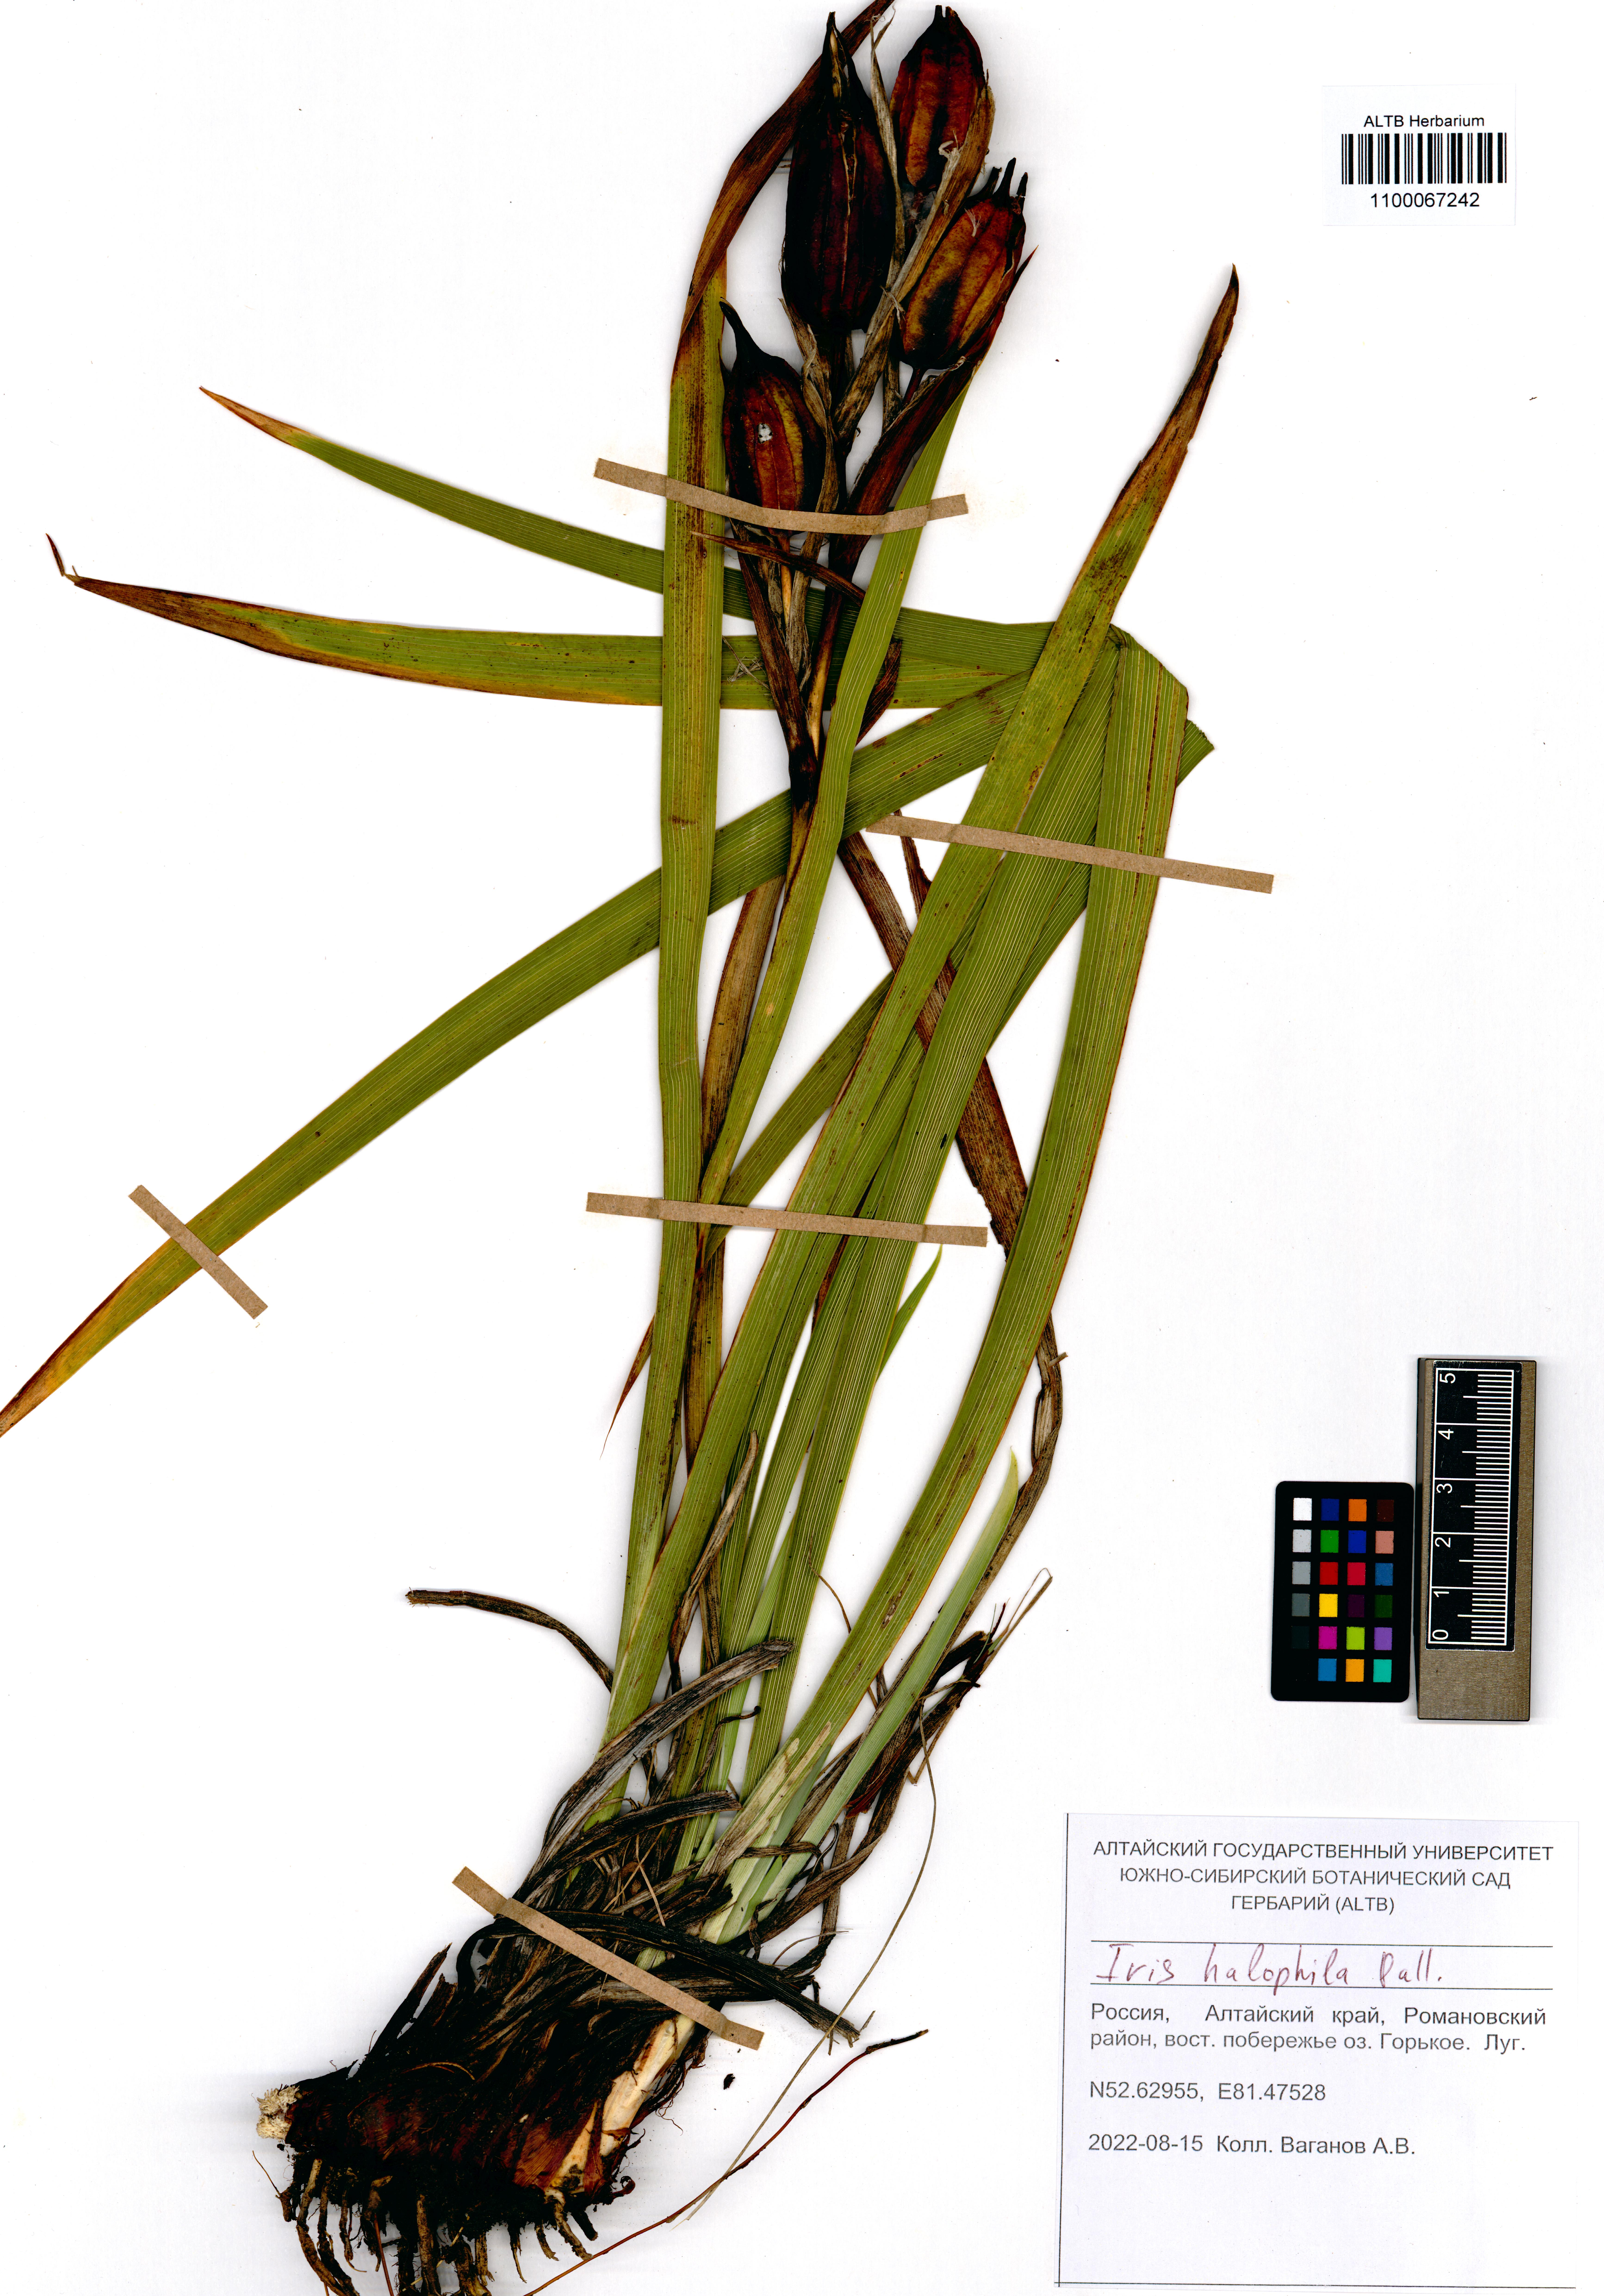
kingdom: Plantae
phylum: Tracheophyta
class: Liliopsida
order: Asparagales
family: Iridaceae
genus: Iris
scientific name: Iris halophila
